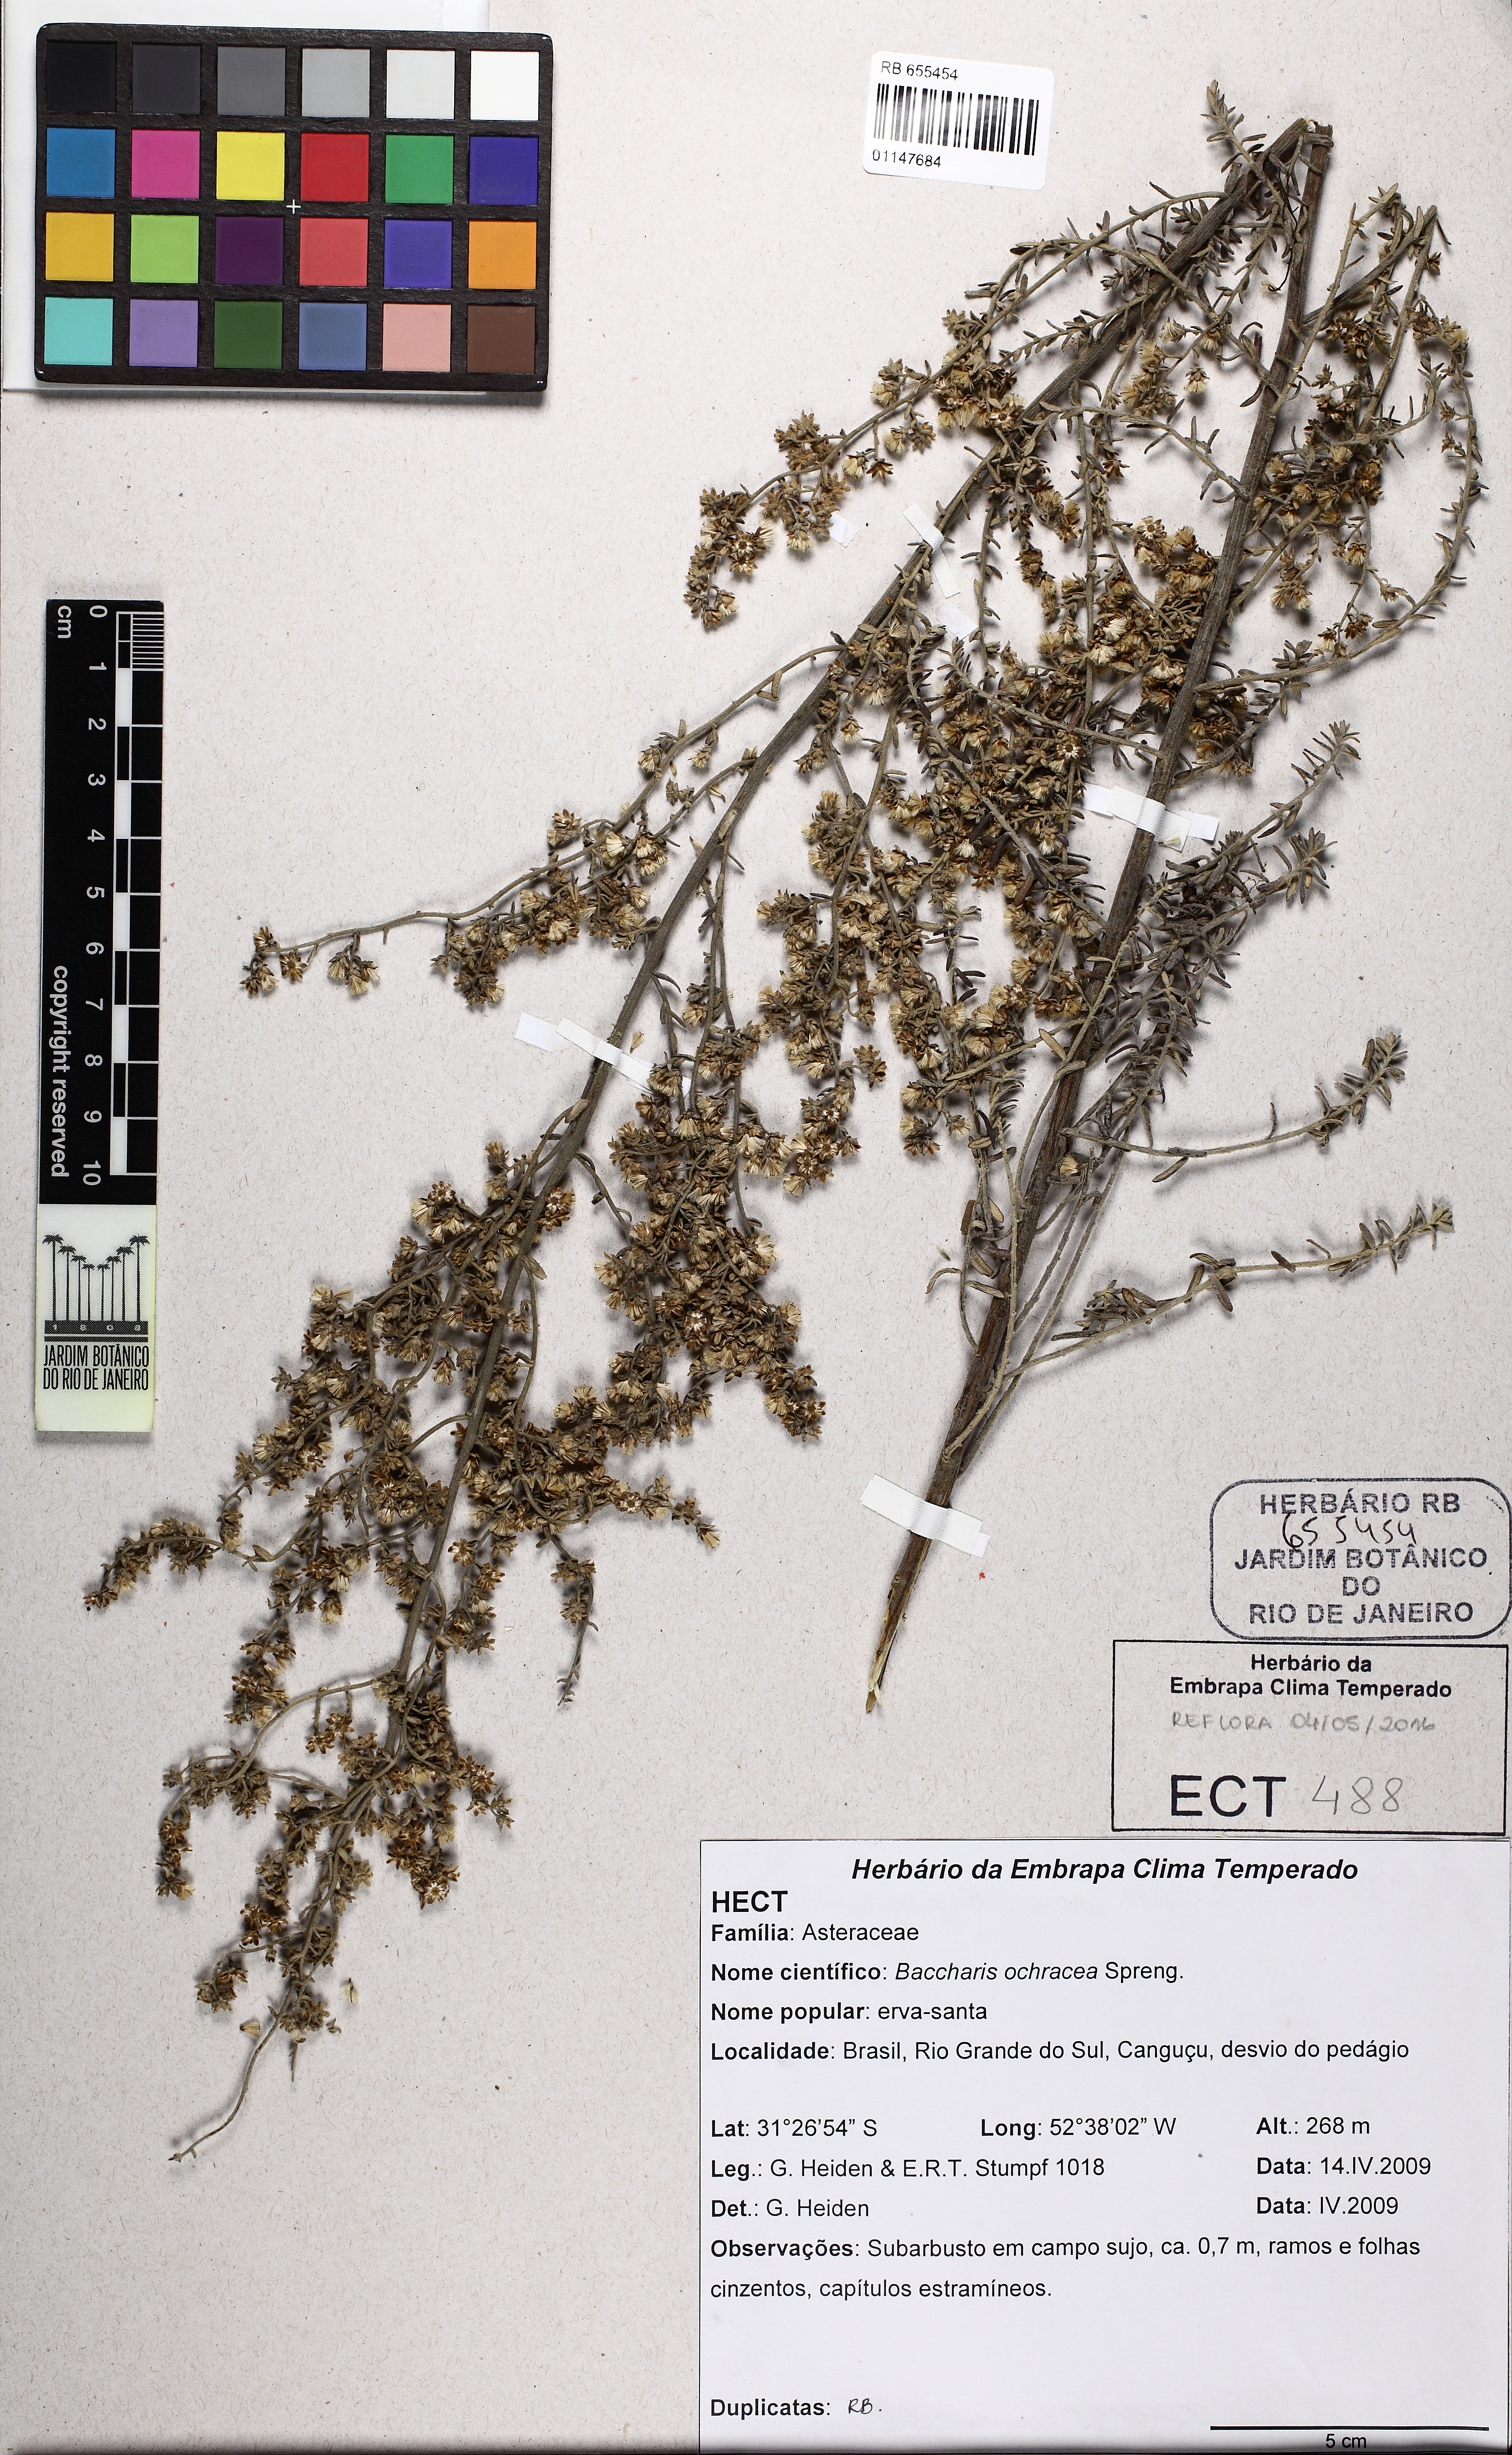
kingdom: Plantae
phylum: Tracheophyta
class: Magnoliopsida
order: Asterales
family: Asteraceae
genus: Baccharis
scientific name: Baccharis ochracea
